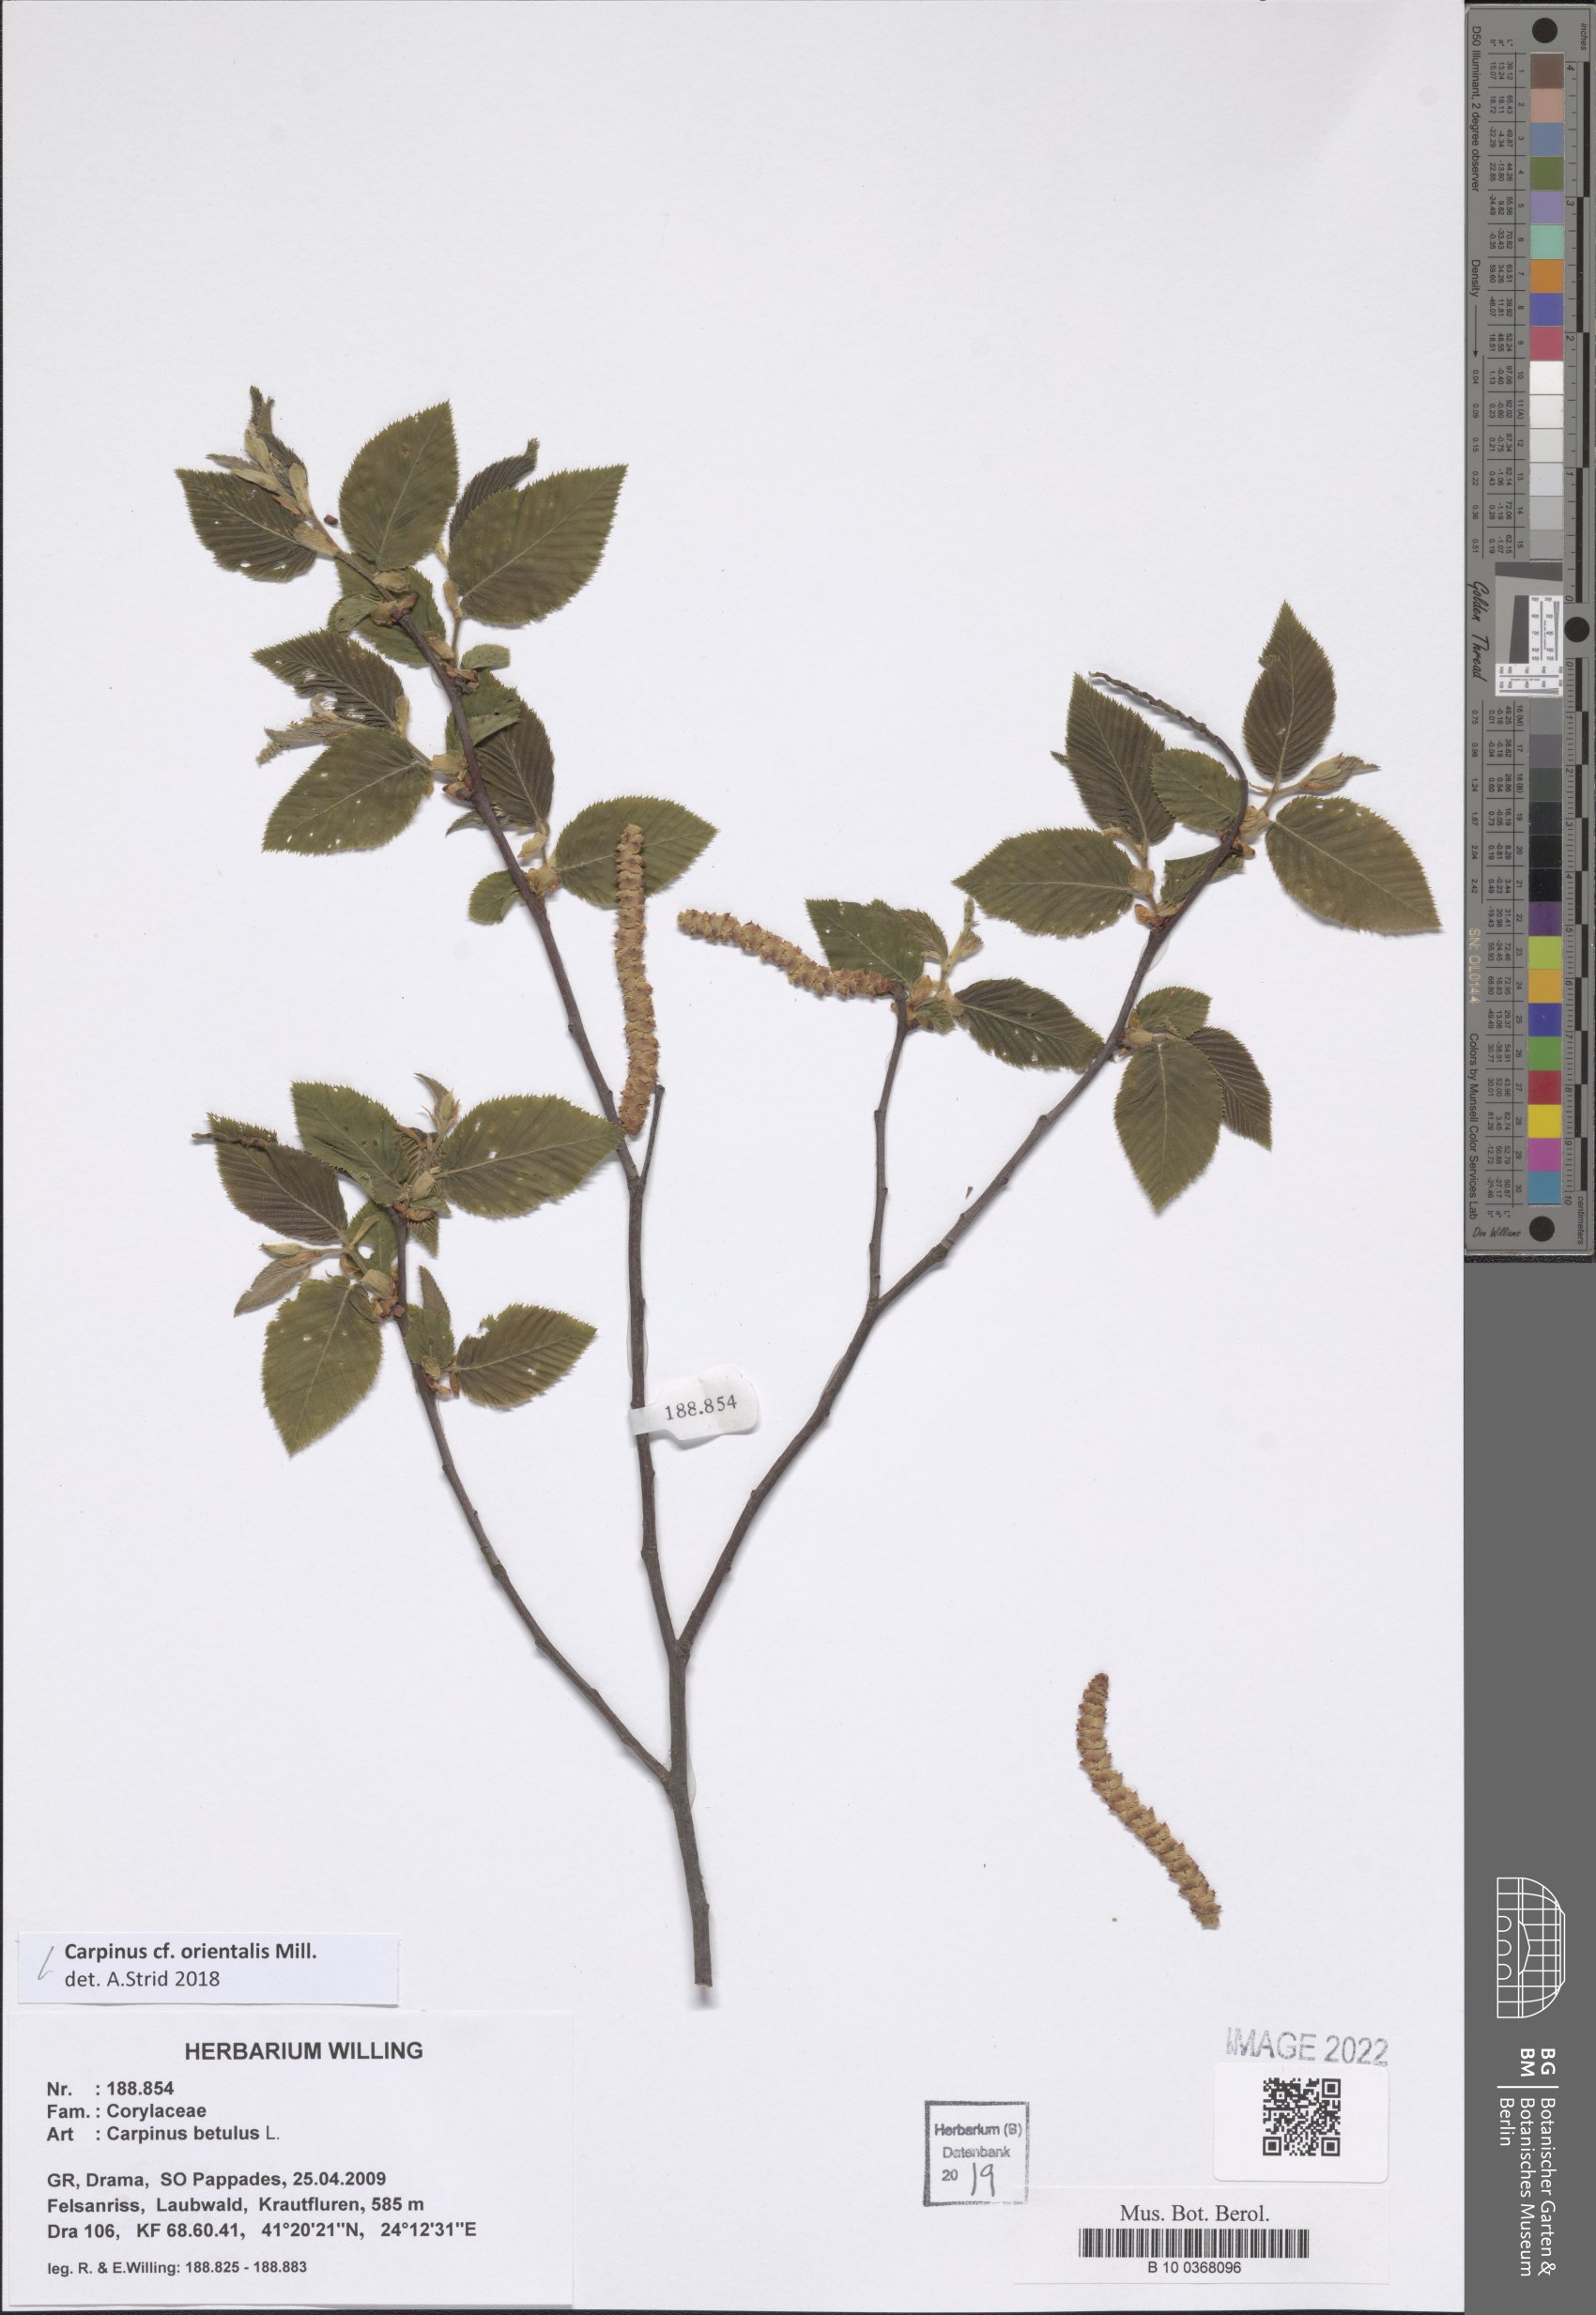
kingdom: Plantae
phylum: Tracheophyta
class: Magnoliopsida
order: Fagales
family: Betulaceae
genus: Carpinus
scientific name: Carpinus orientalis
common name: Eastern hornbeam
